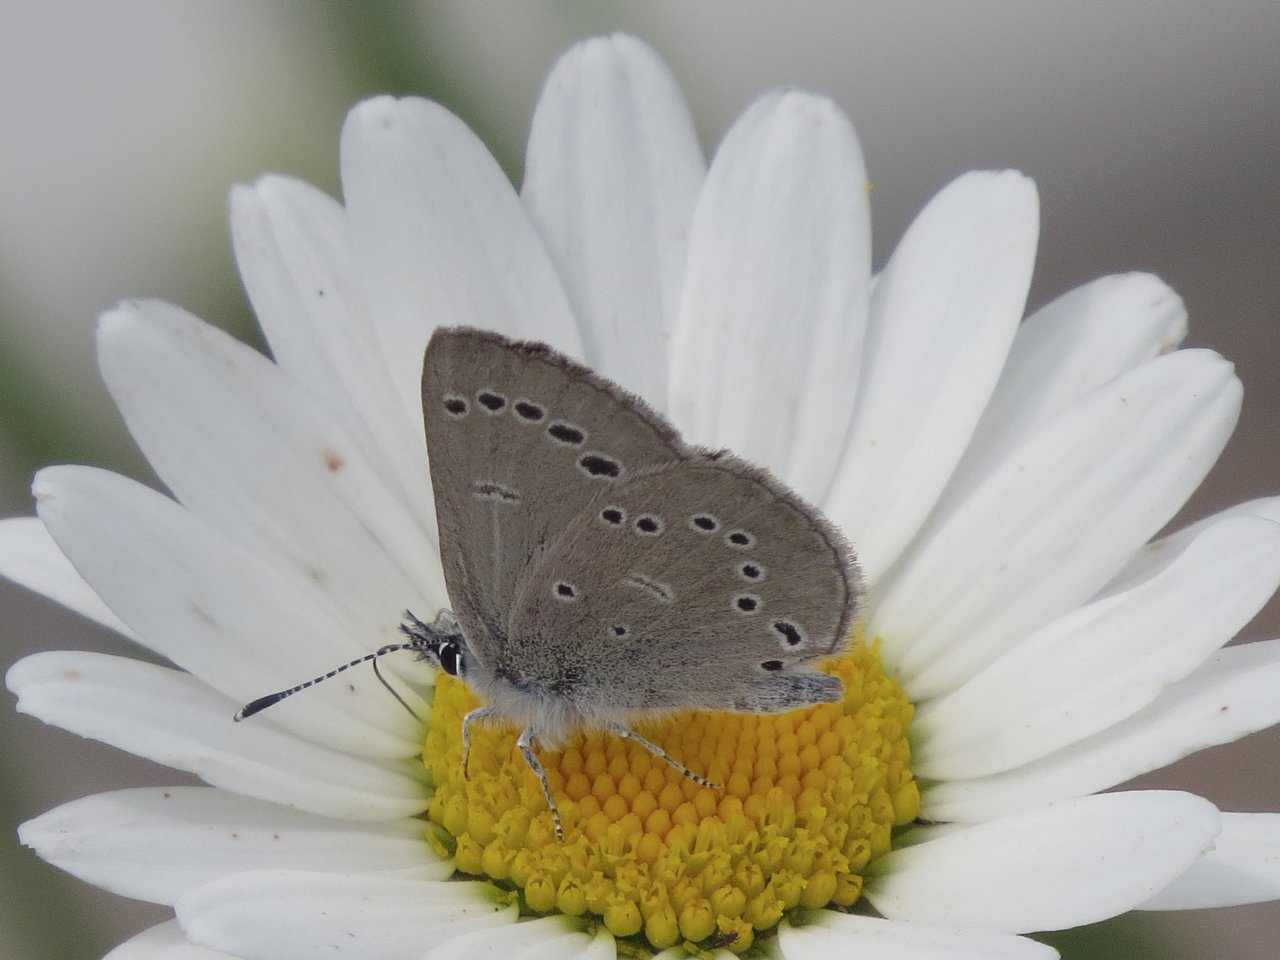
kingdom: Animalia
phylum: Arthropoda
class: Insecta
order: Lepidoptera
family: Lycaenidae
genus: Glaucopsyche
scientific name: Glaucopsyche lygdamus
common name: Silvery Blue
